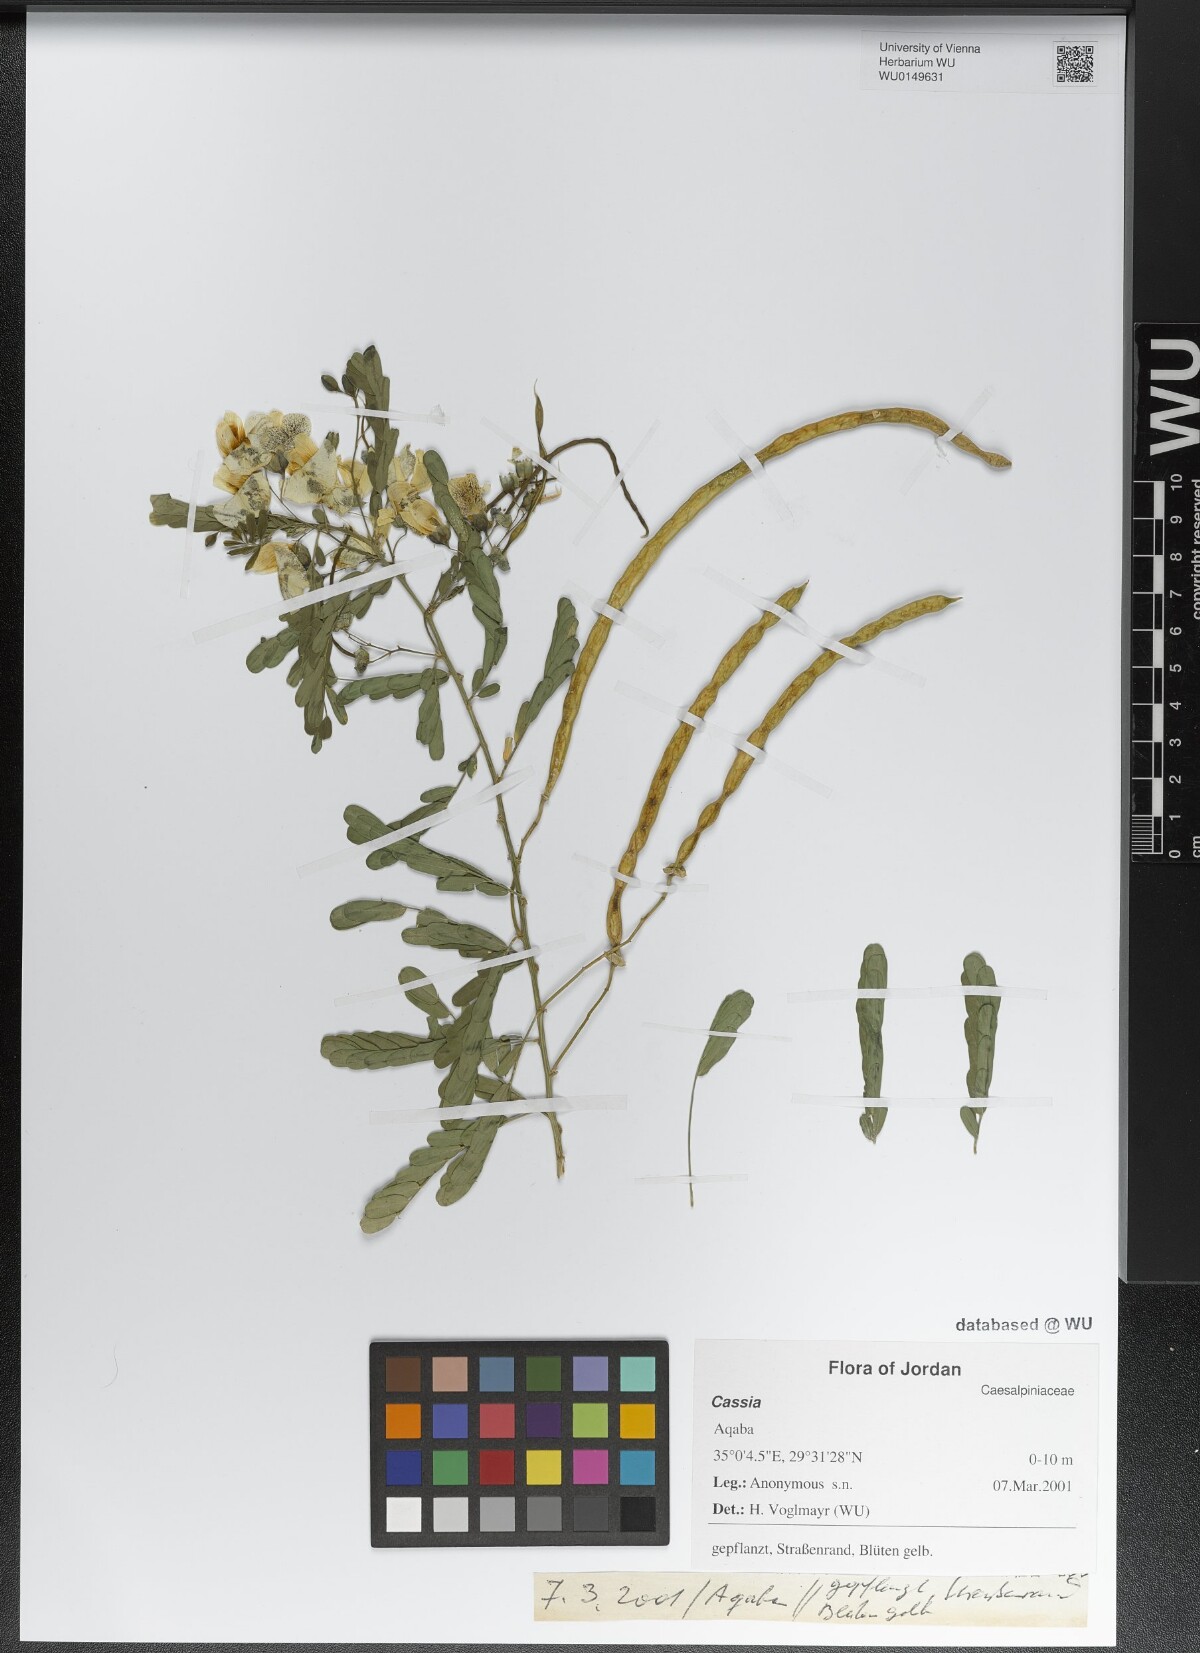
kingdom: Plantae
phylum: Tracheophyta
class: Magnoliopsida
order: Fabales
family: Fabaceae
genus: Cassia
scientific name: Cassia
